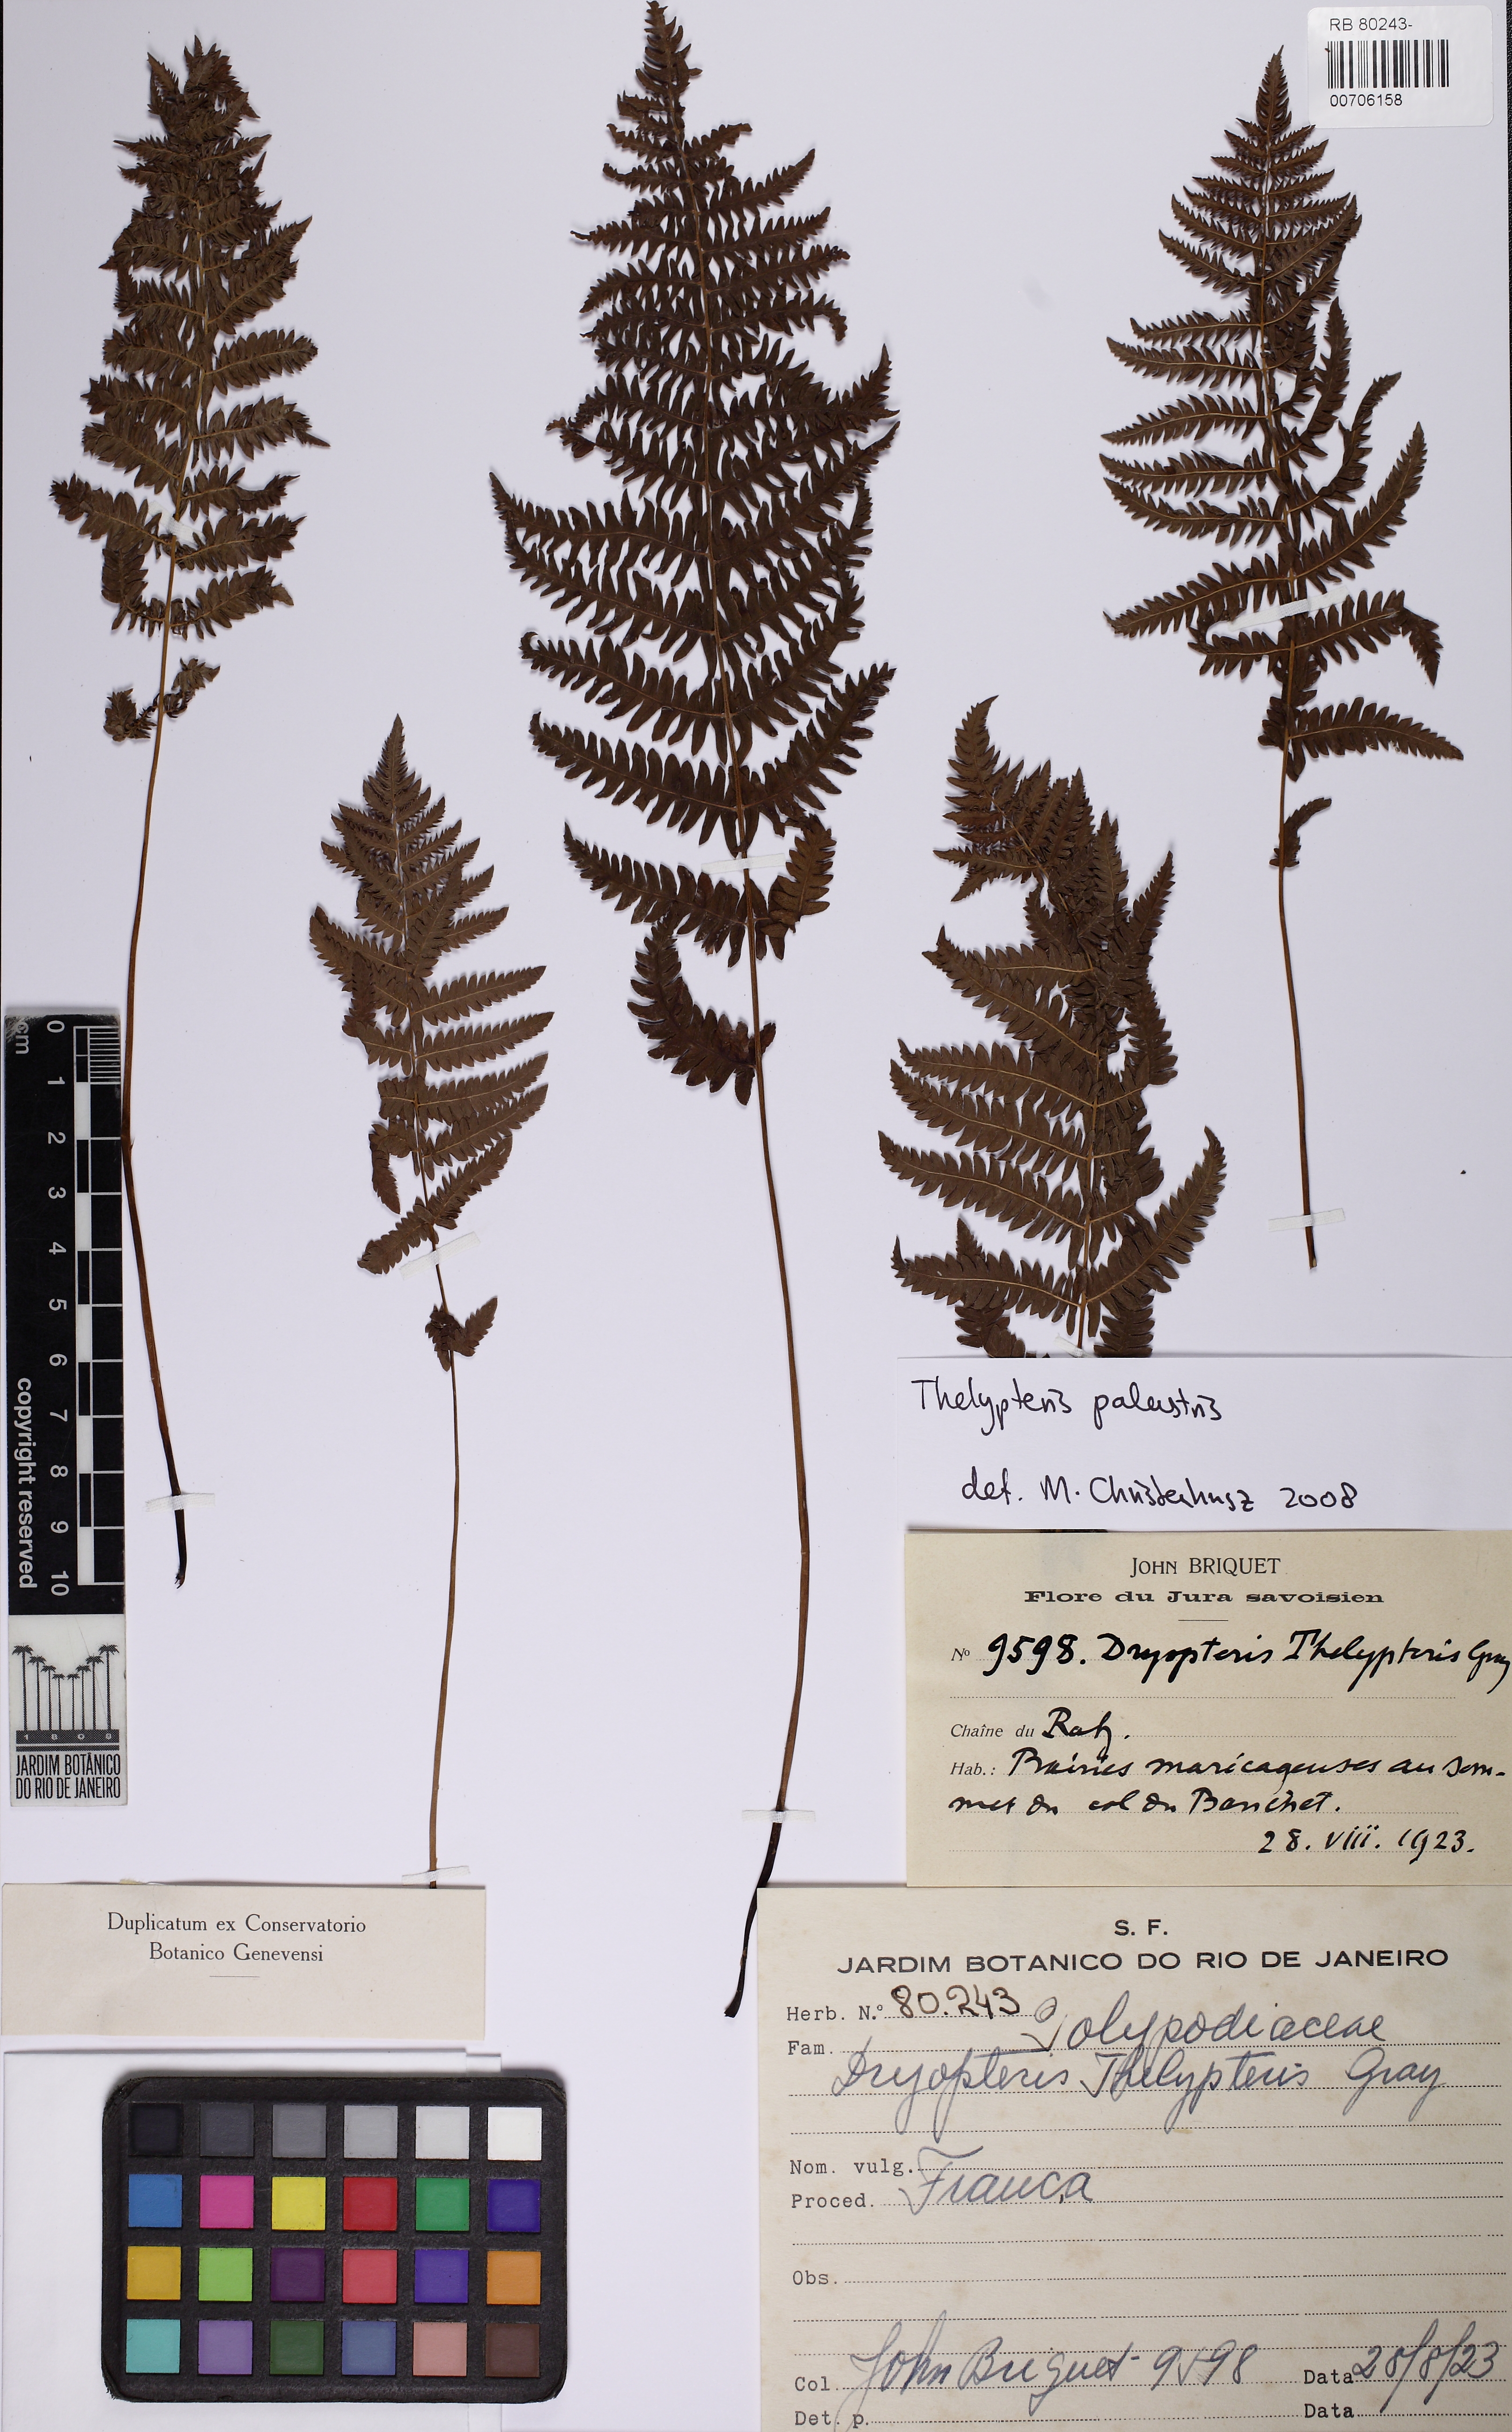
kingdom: Plantae
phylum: Tracheophyta
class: Polypodiopsida
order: Polypodiales
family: Thelypteridaceae
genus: Thelypteris
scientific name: Thelypteris palustris
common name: Marsh fern
